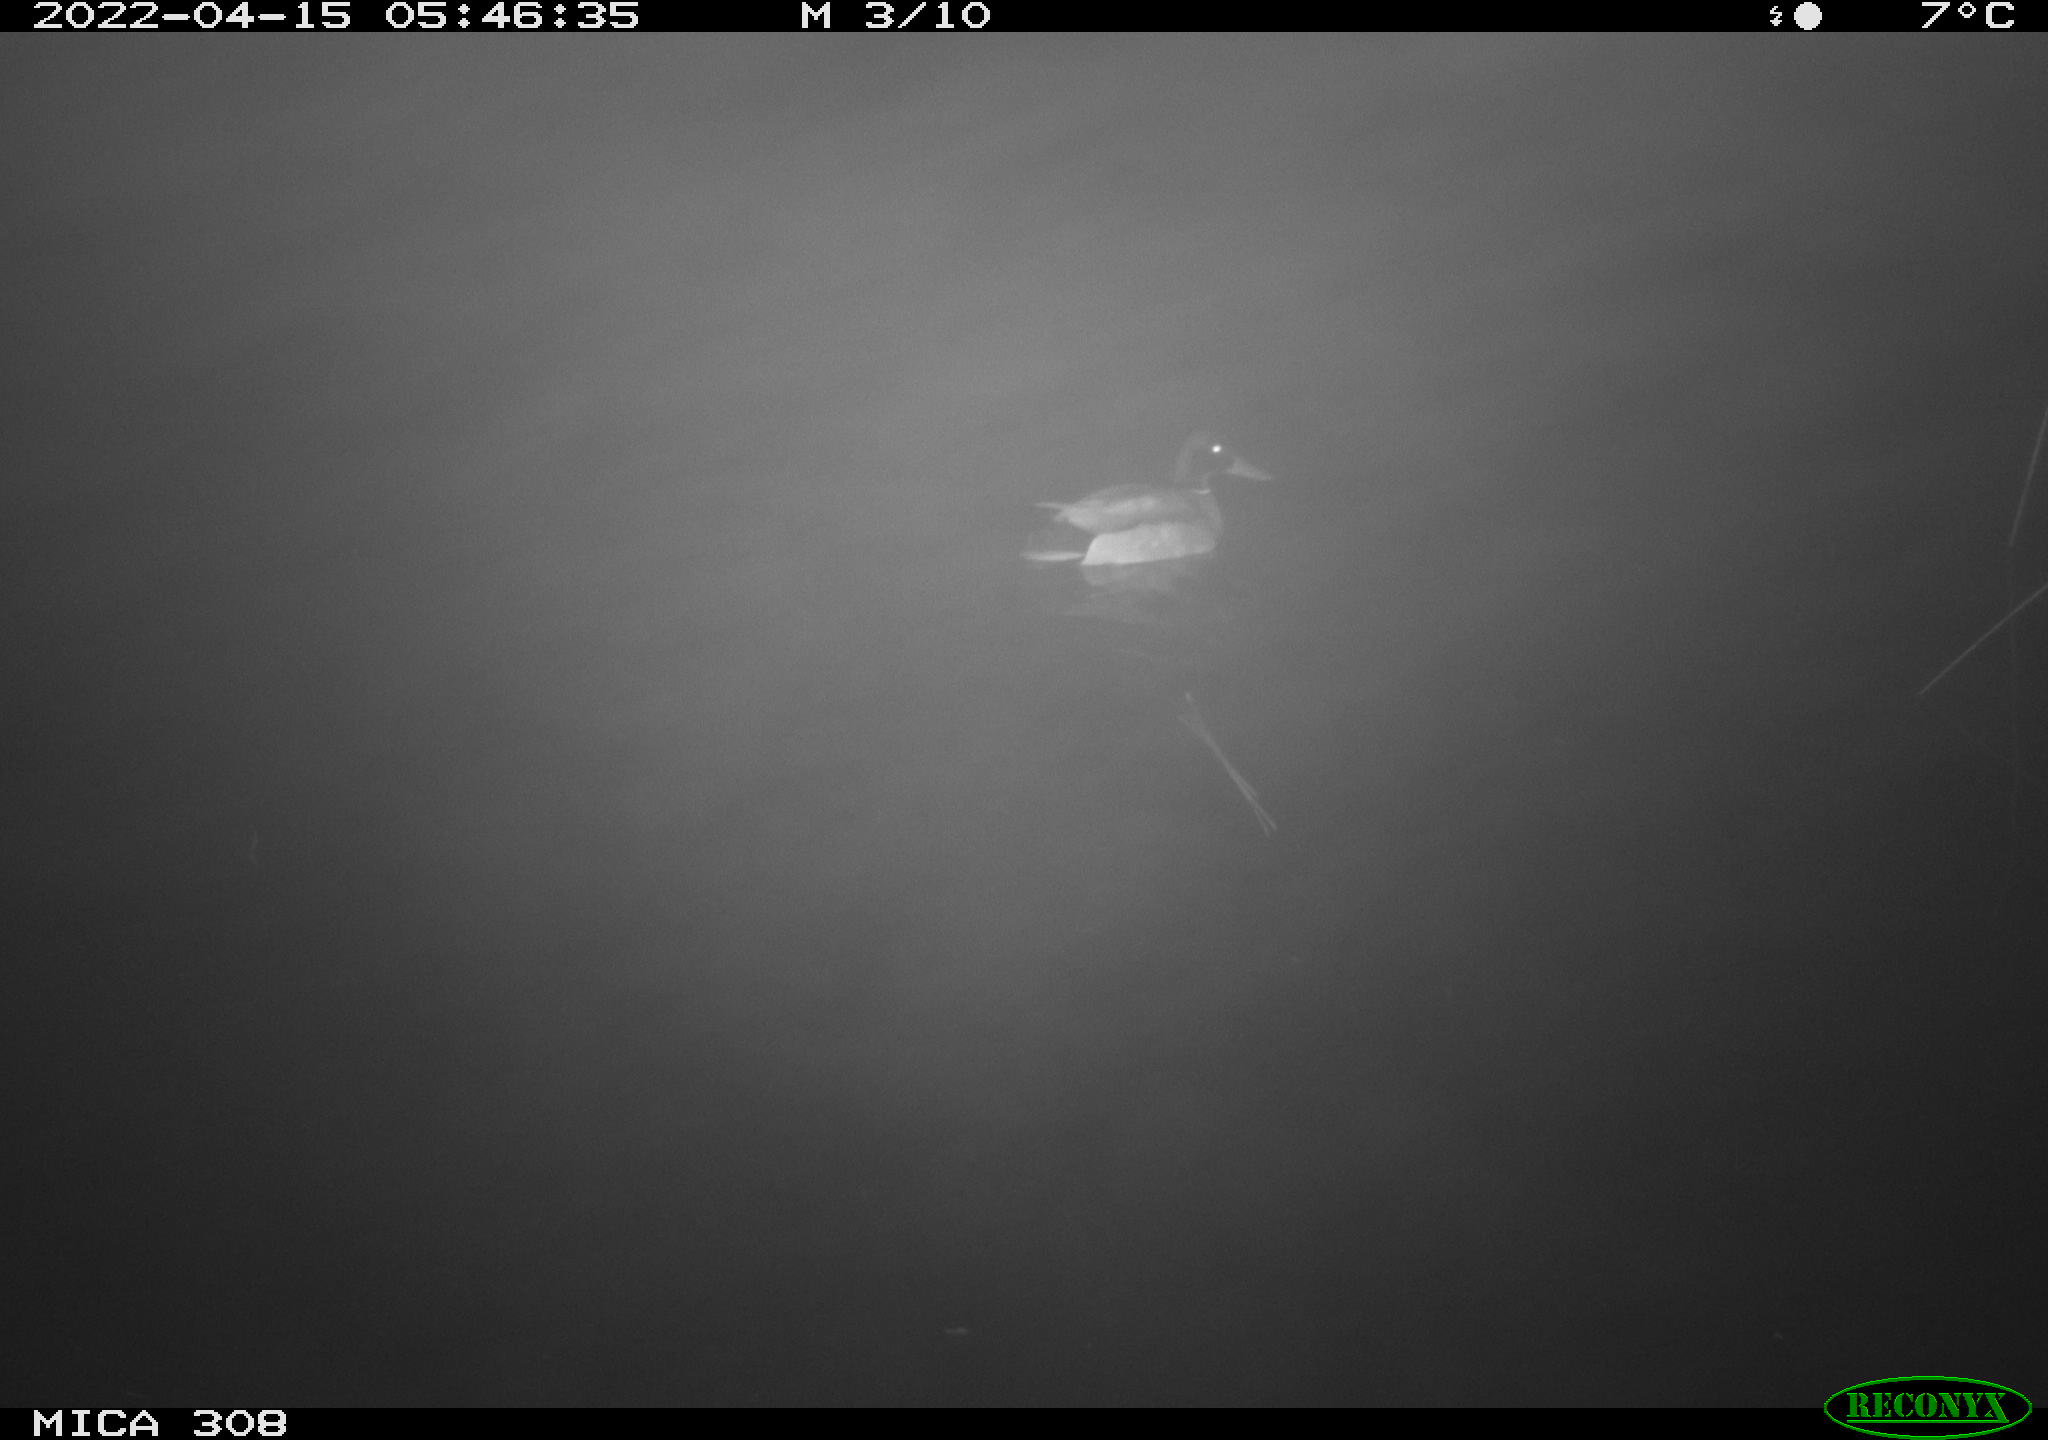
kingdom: Animalia
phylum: Chordata
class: Aves
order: Anseriformes
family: Anatidae
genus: Anas
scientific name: Anas platyrhynchos
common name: Mallard
